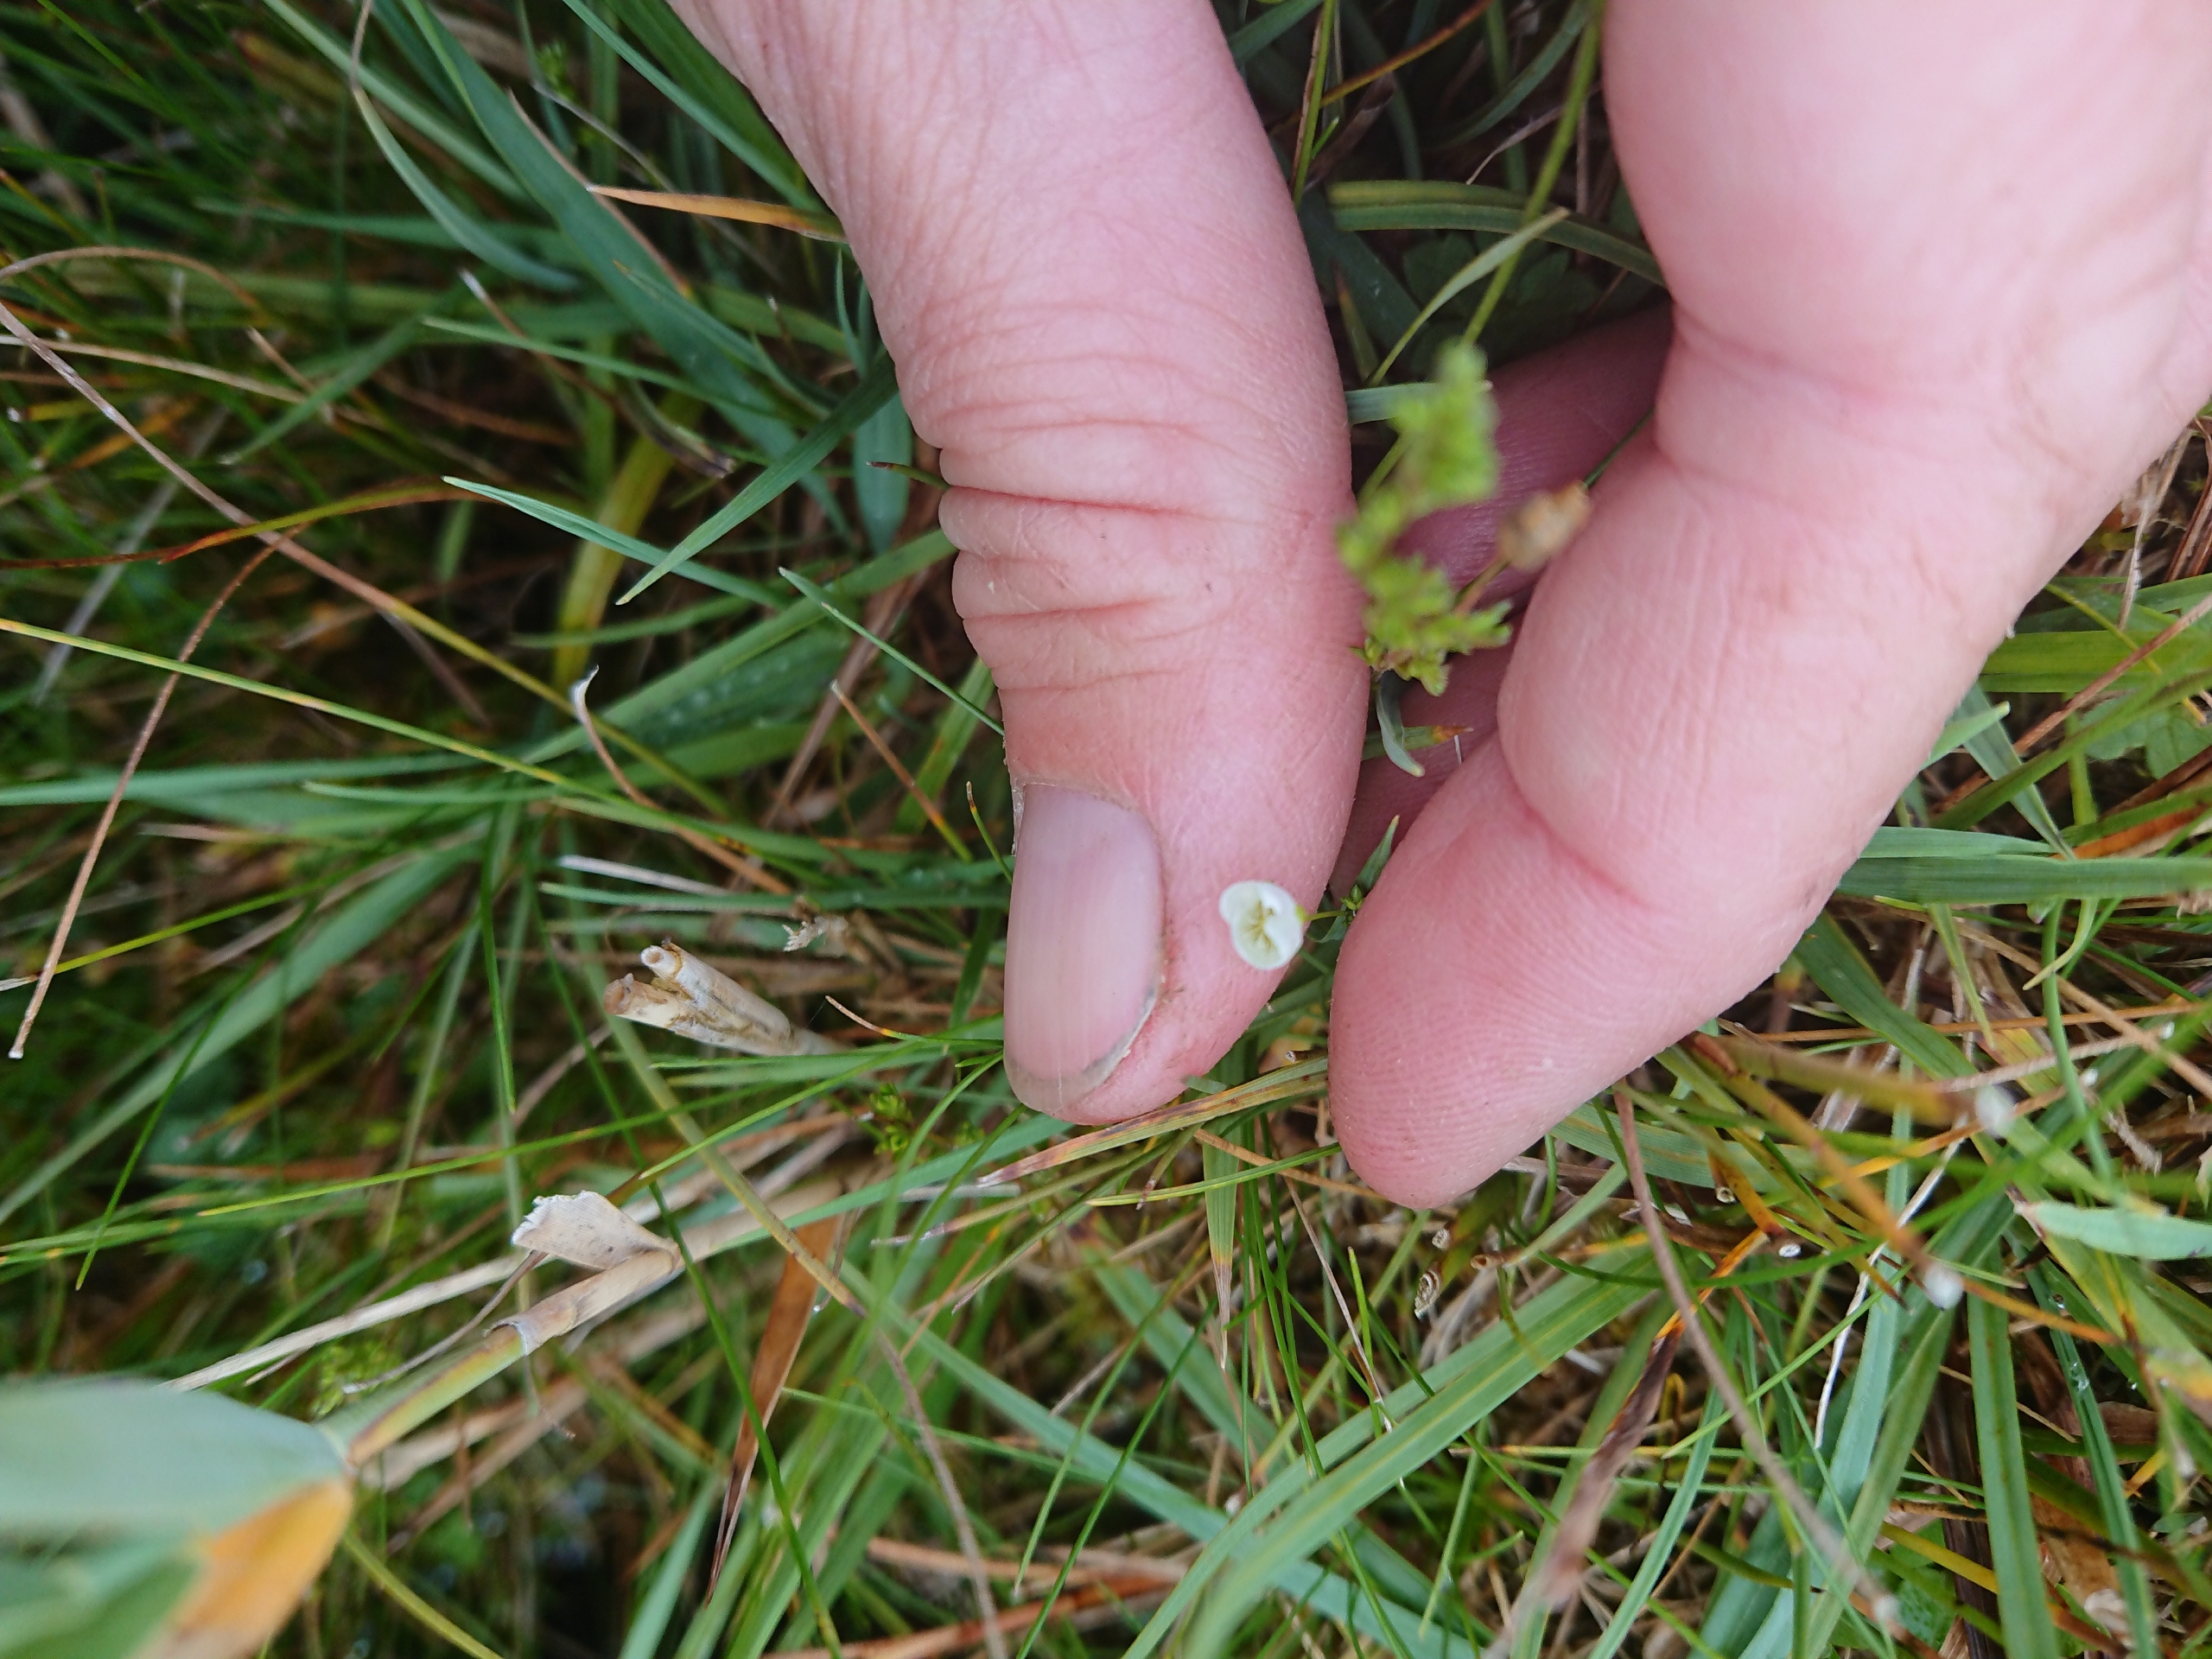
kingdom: Plantae
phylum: Tracheophyta
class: Magnoliopsida
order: Caryophyllales
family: Caryophyllaceae
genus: Sagina
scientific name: Sagina nodosa
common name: Knude-firling
